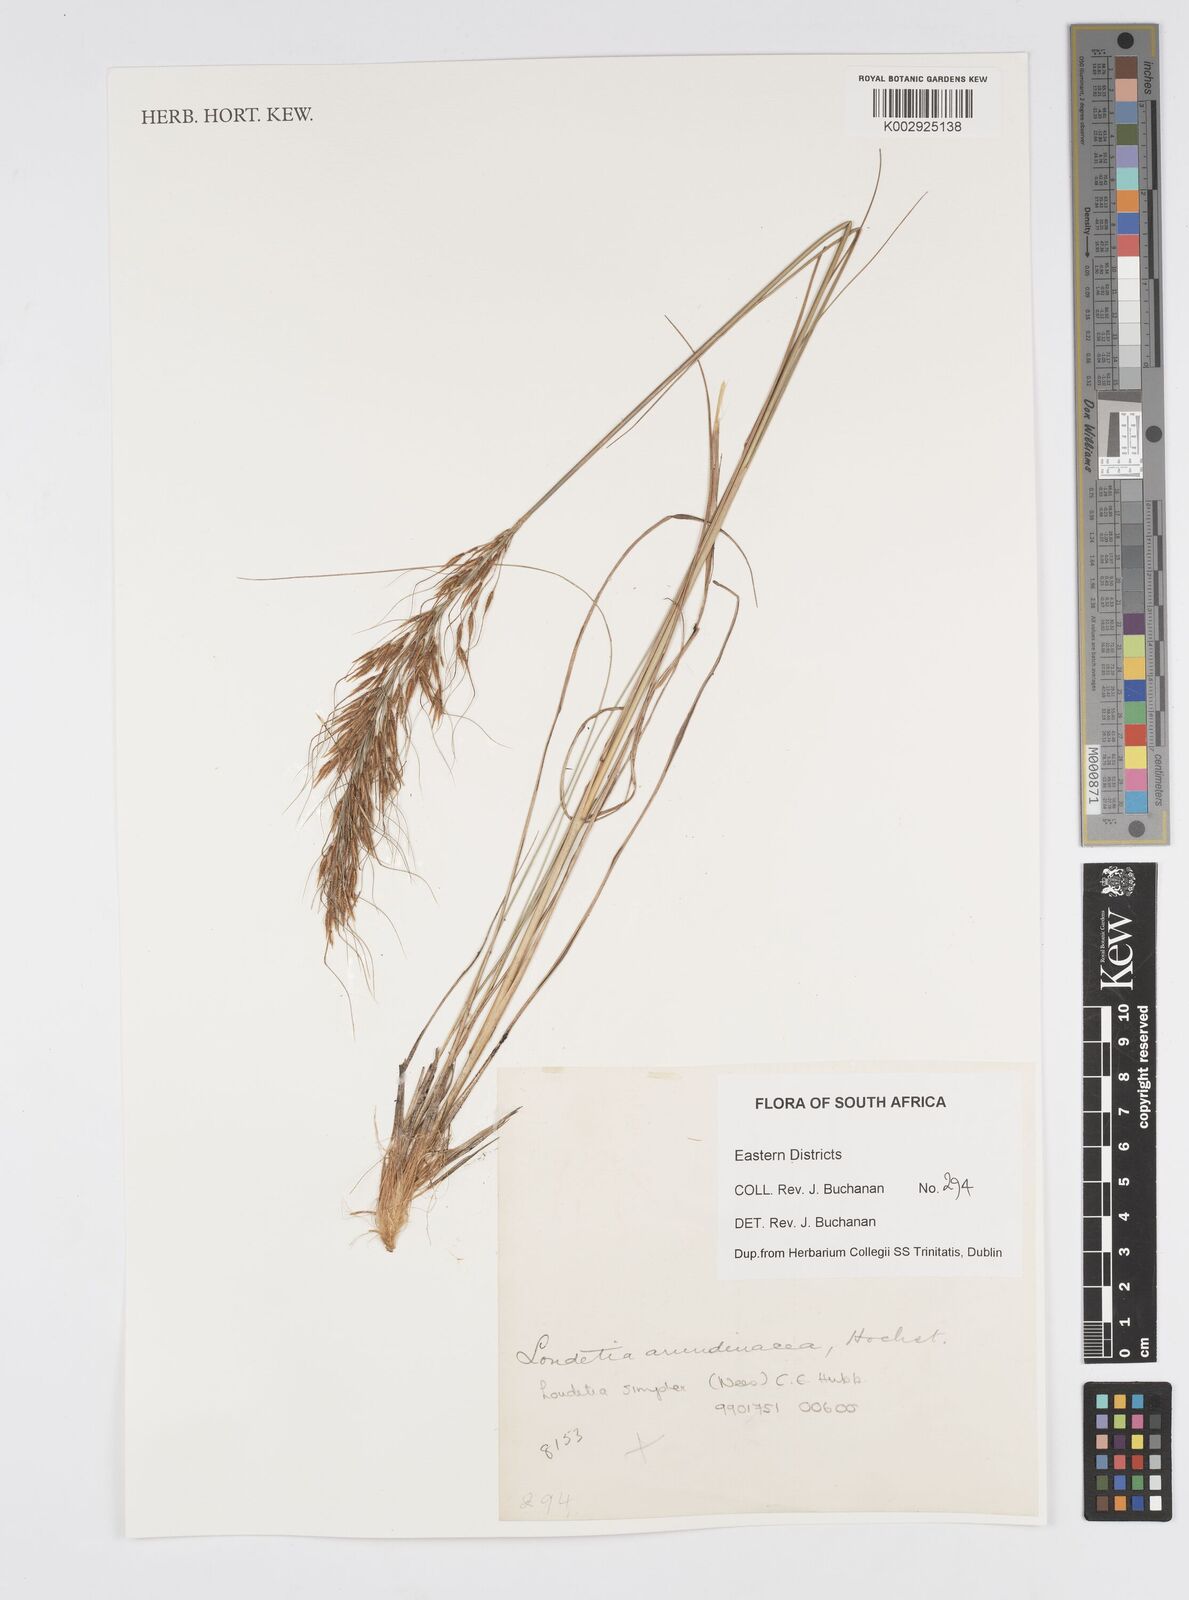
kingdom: Plantae
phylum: Tracheophyta
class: Liliopsida
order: Poales
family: Poaceae
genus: Loudetia
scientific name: Loudetia simplex
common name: Common russet grass
